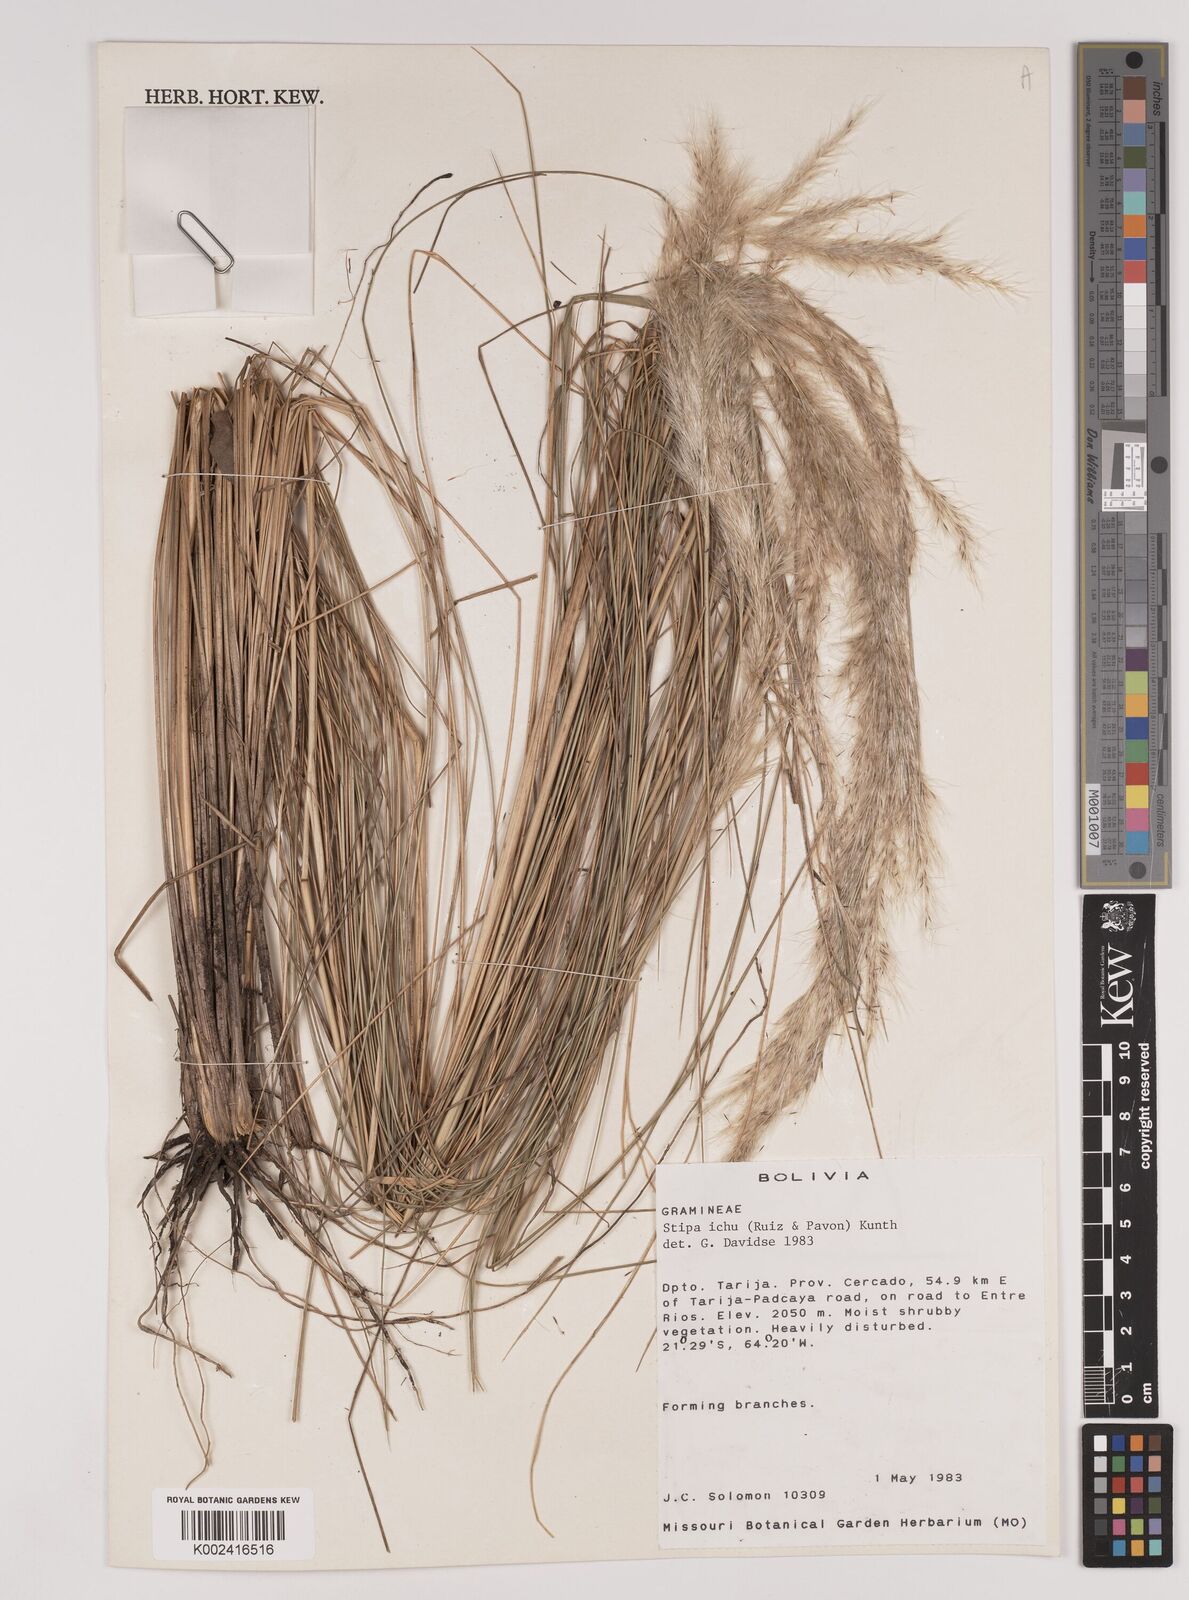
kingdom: Plantae
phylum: Tracheophyta
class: Liliopsida
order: Poales
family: Poaceae
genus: Jarava
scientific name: Jarava ichu
